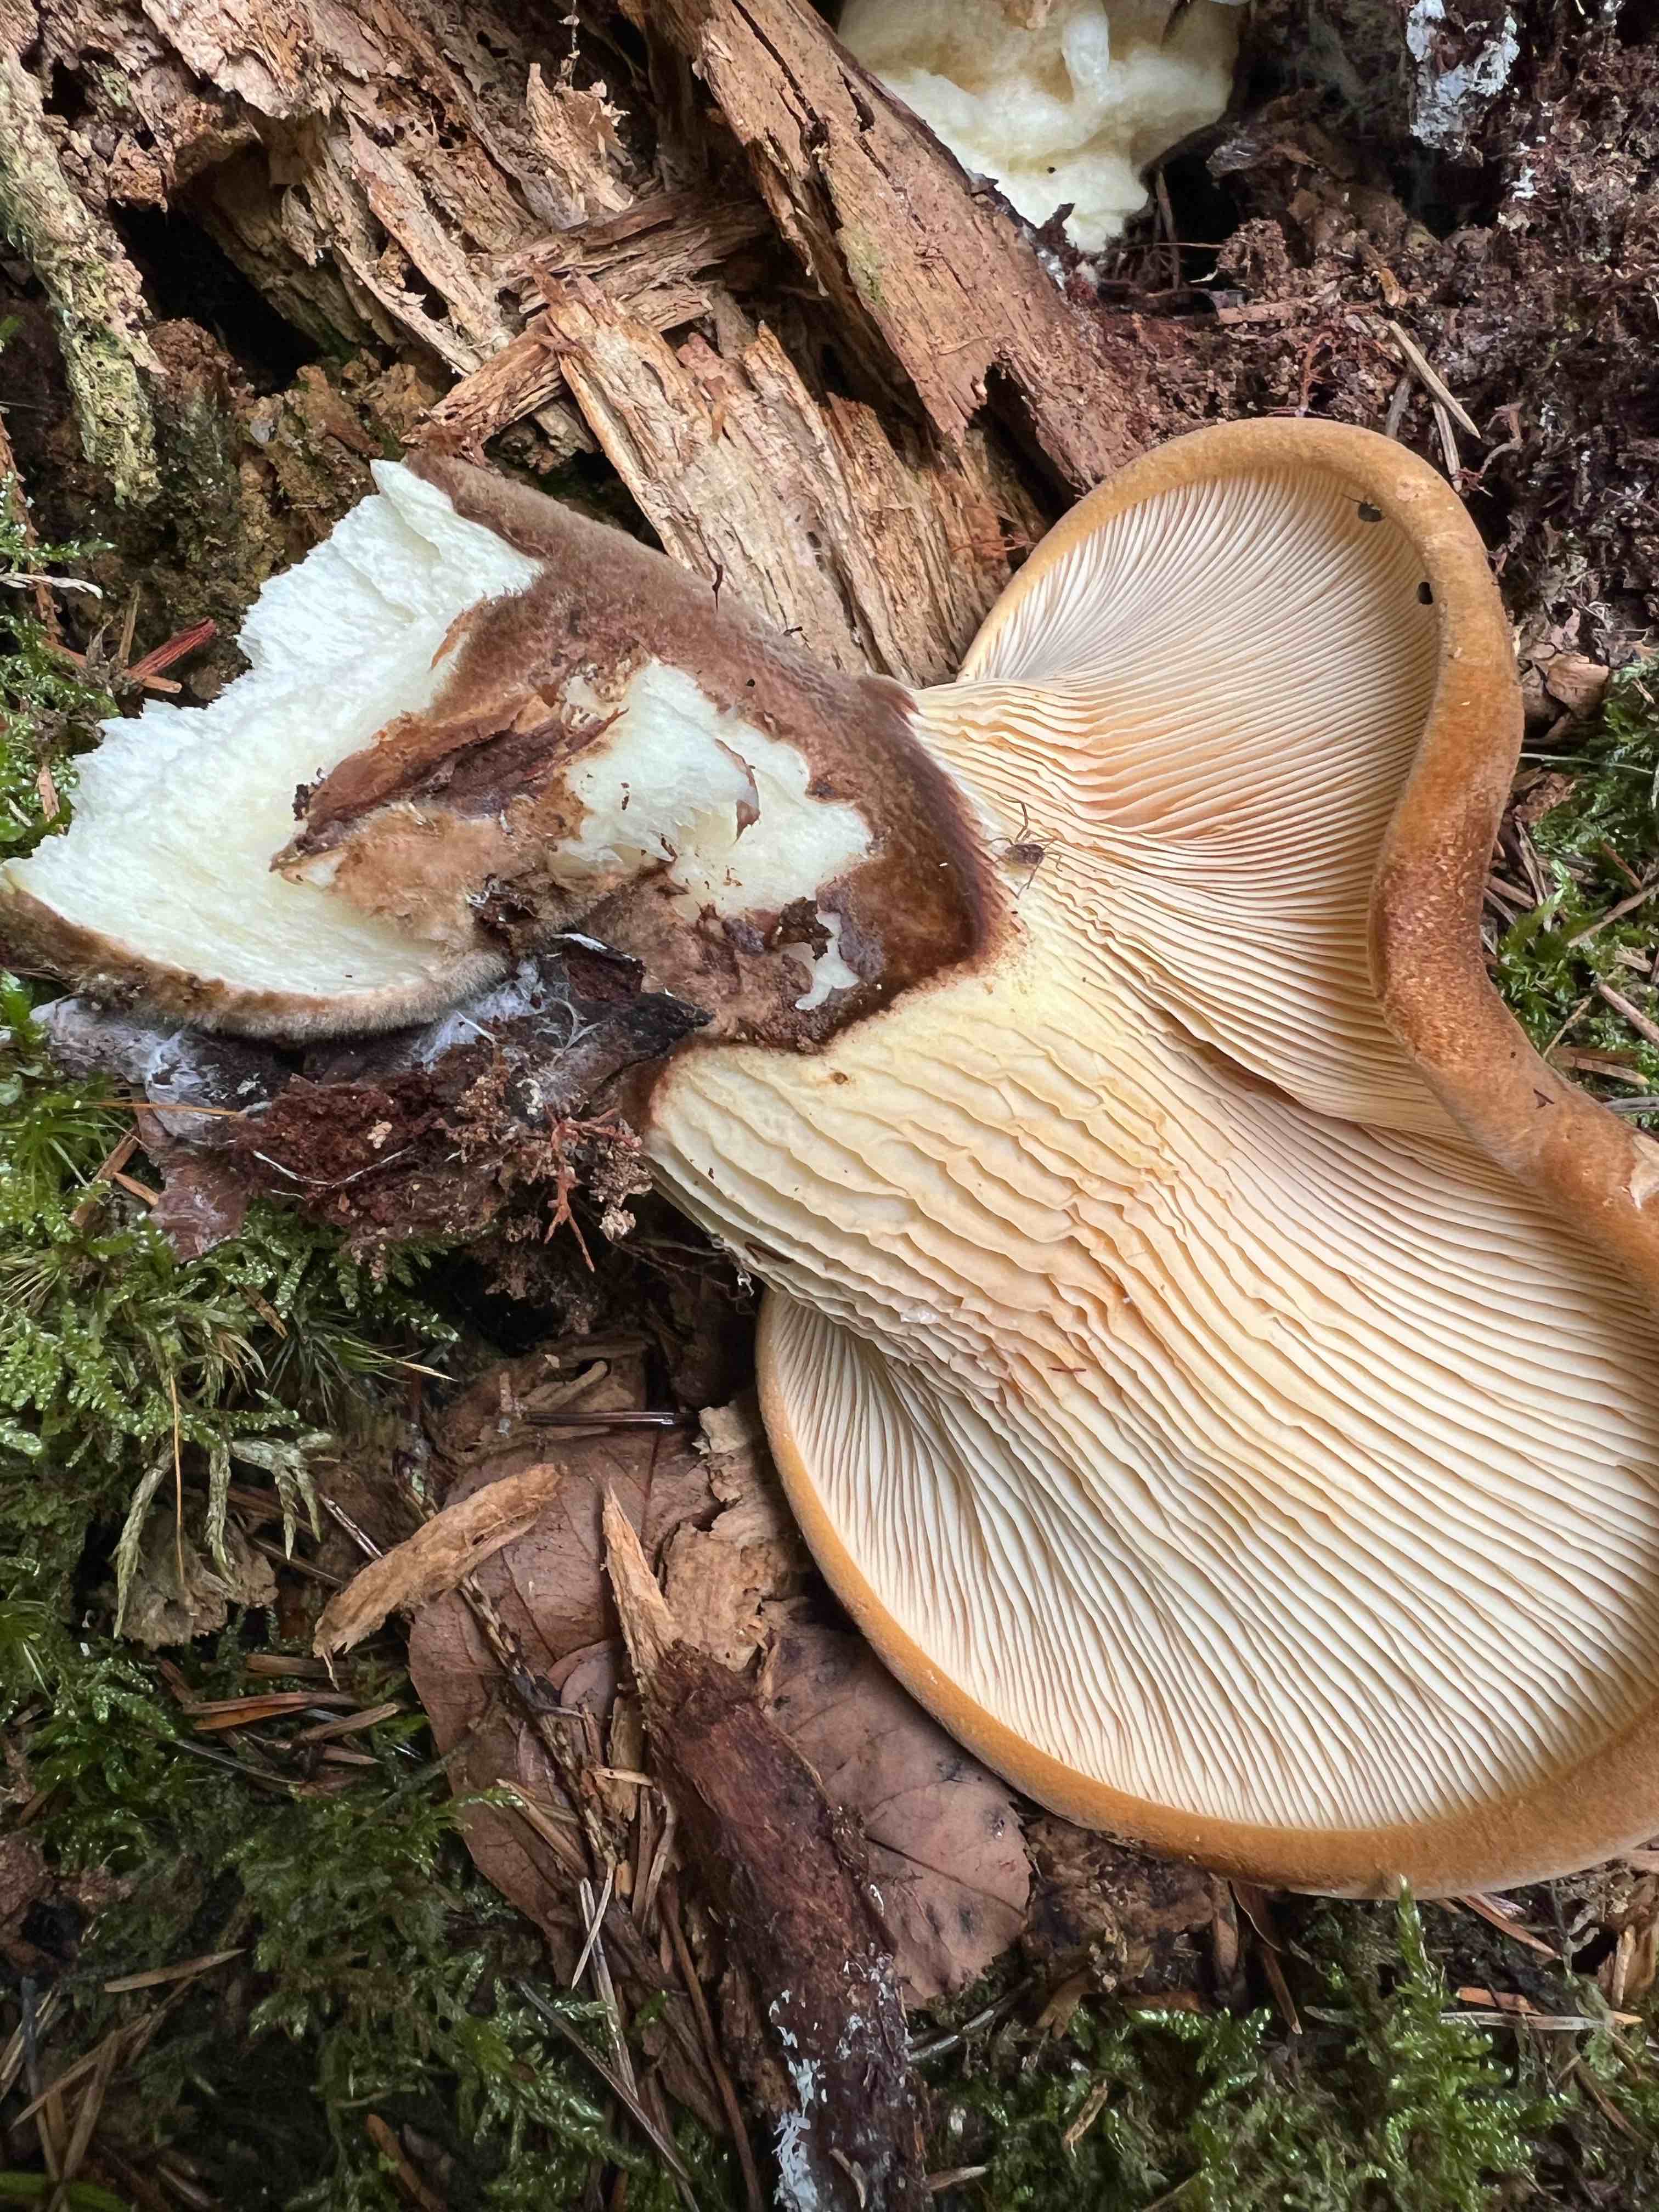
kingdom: Fungi
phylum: Basidiomycota
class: Agaricomycetes
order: Boletales
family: Tapinellaceae
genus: Tapinella
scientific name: Tapinella atrotomentosa
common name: sortfiltet viftesvamp
